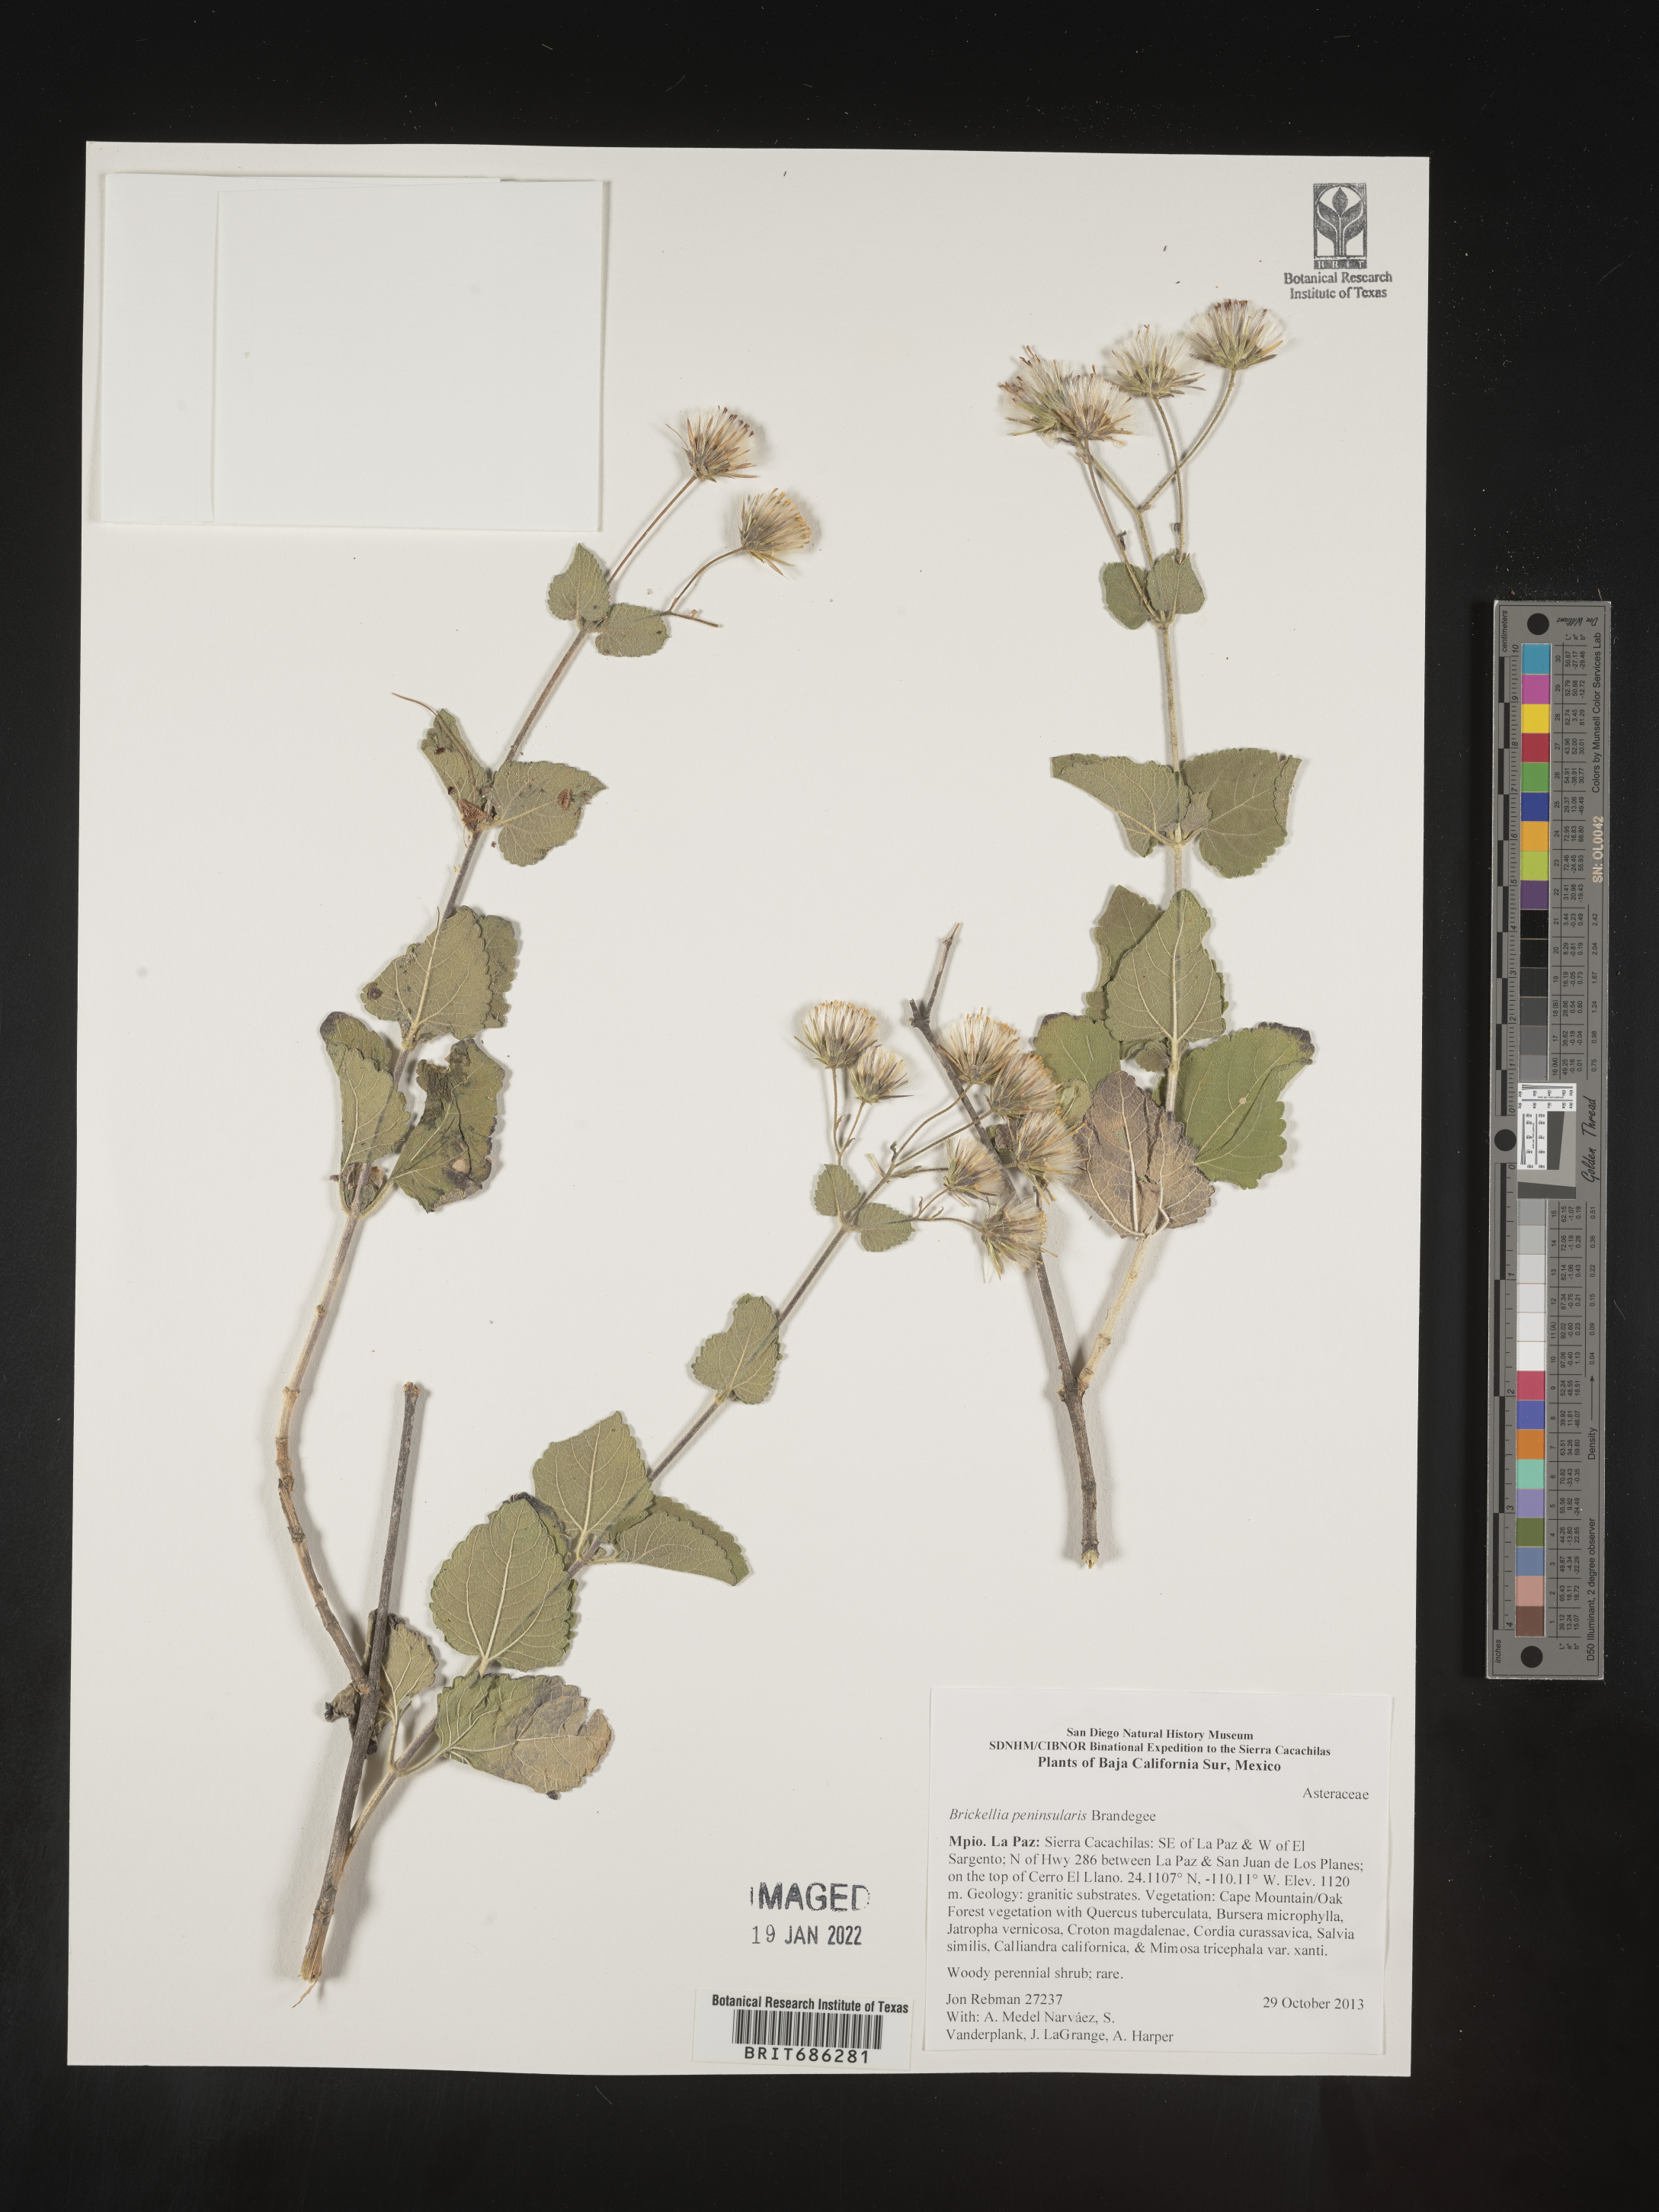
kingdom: Plantae
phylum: Tracheophyta
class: Magnoliopsida
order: Asterales
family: Asteraceae
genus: Brickellia
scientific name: Brickellia
